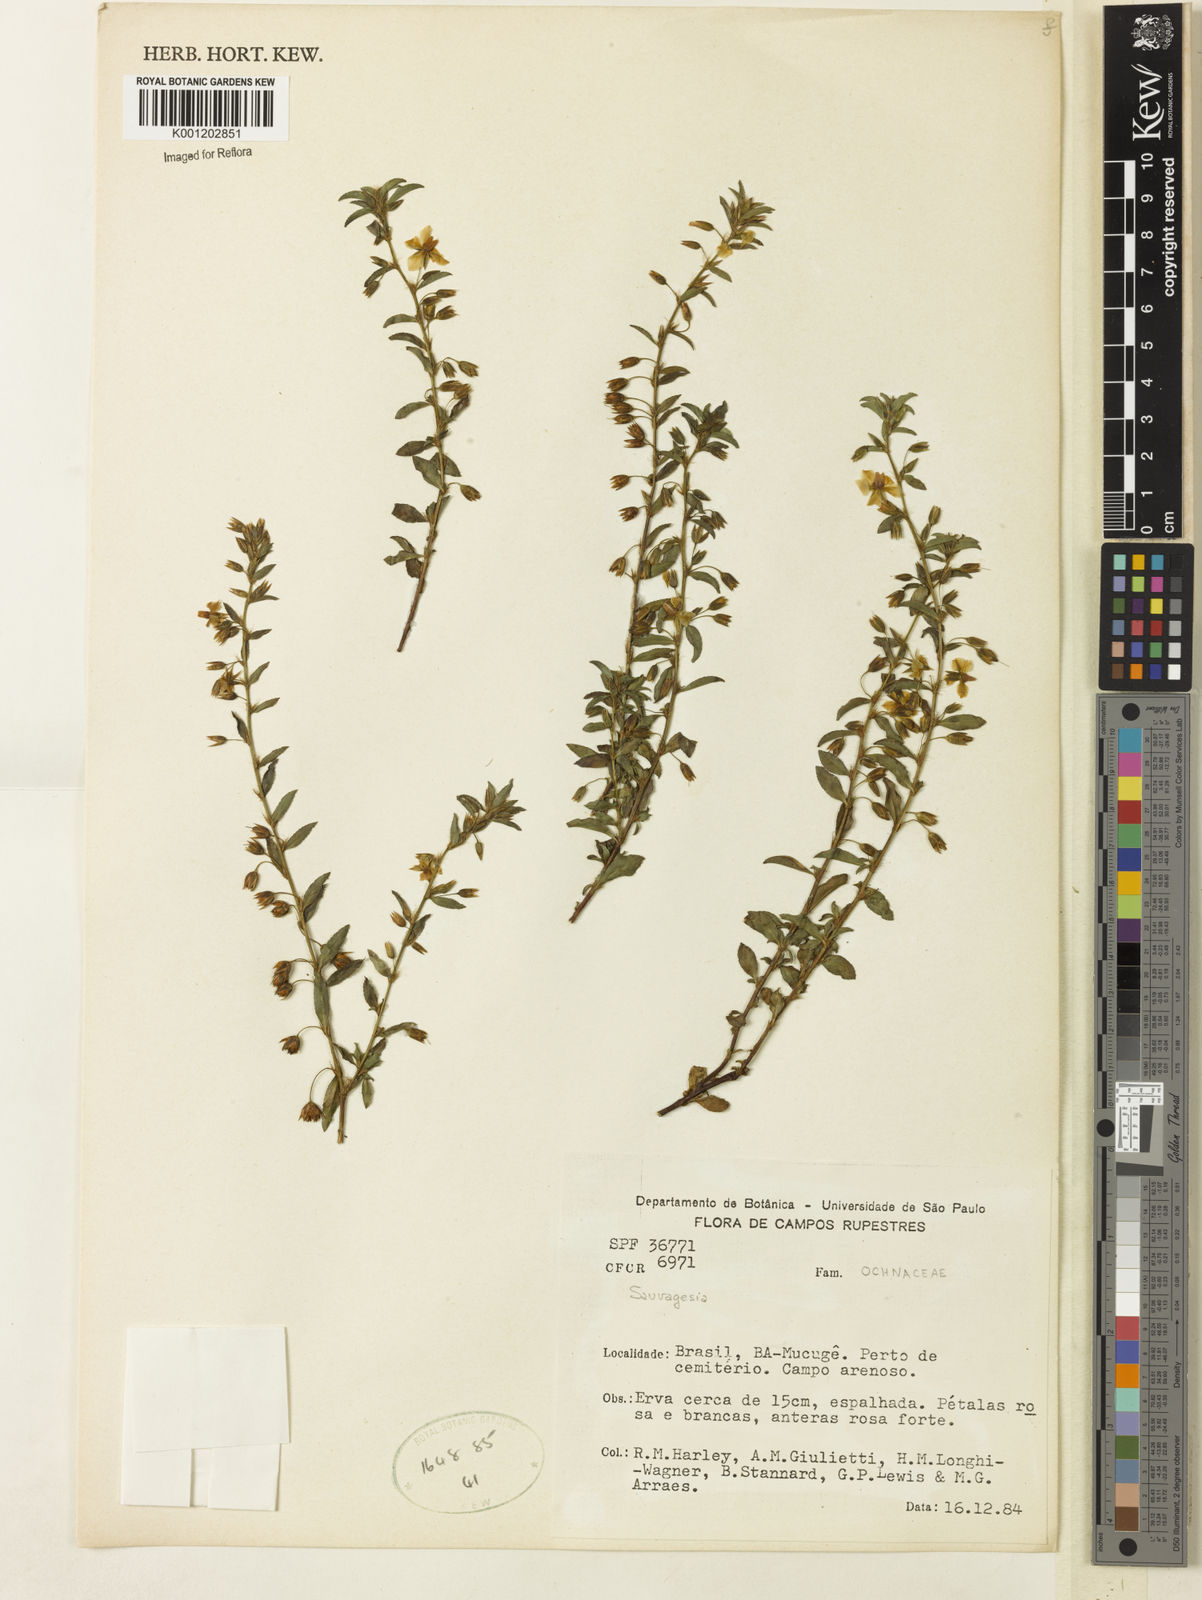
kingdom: Plantae
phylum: Tracheophyta
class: Magnoliopsida
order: Malpighiales
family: Ochnaceae
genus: Sauvagesia
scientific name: Sauvagesia erecta
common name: Creole tea
